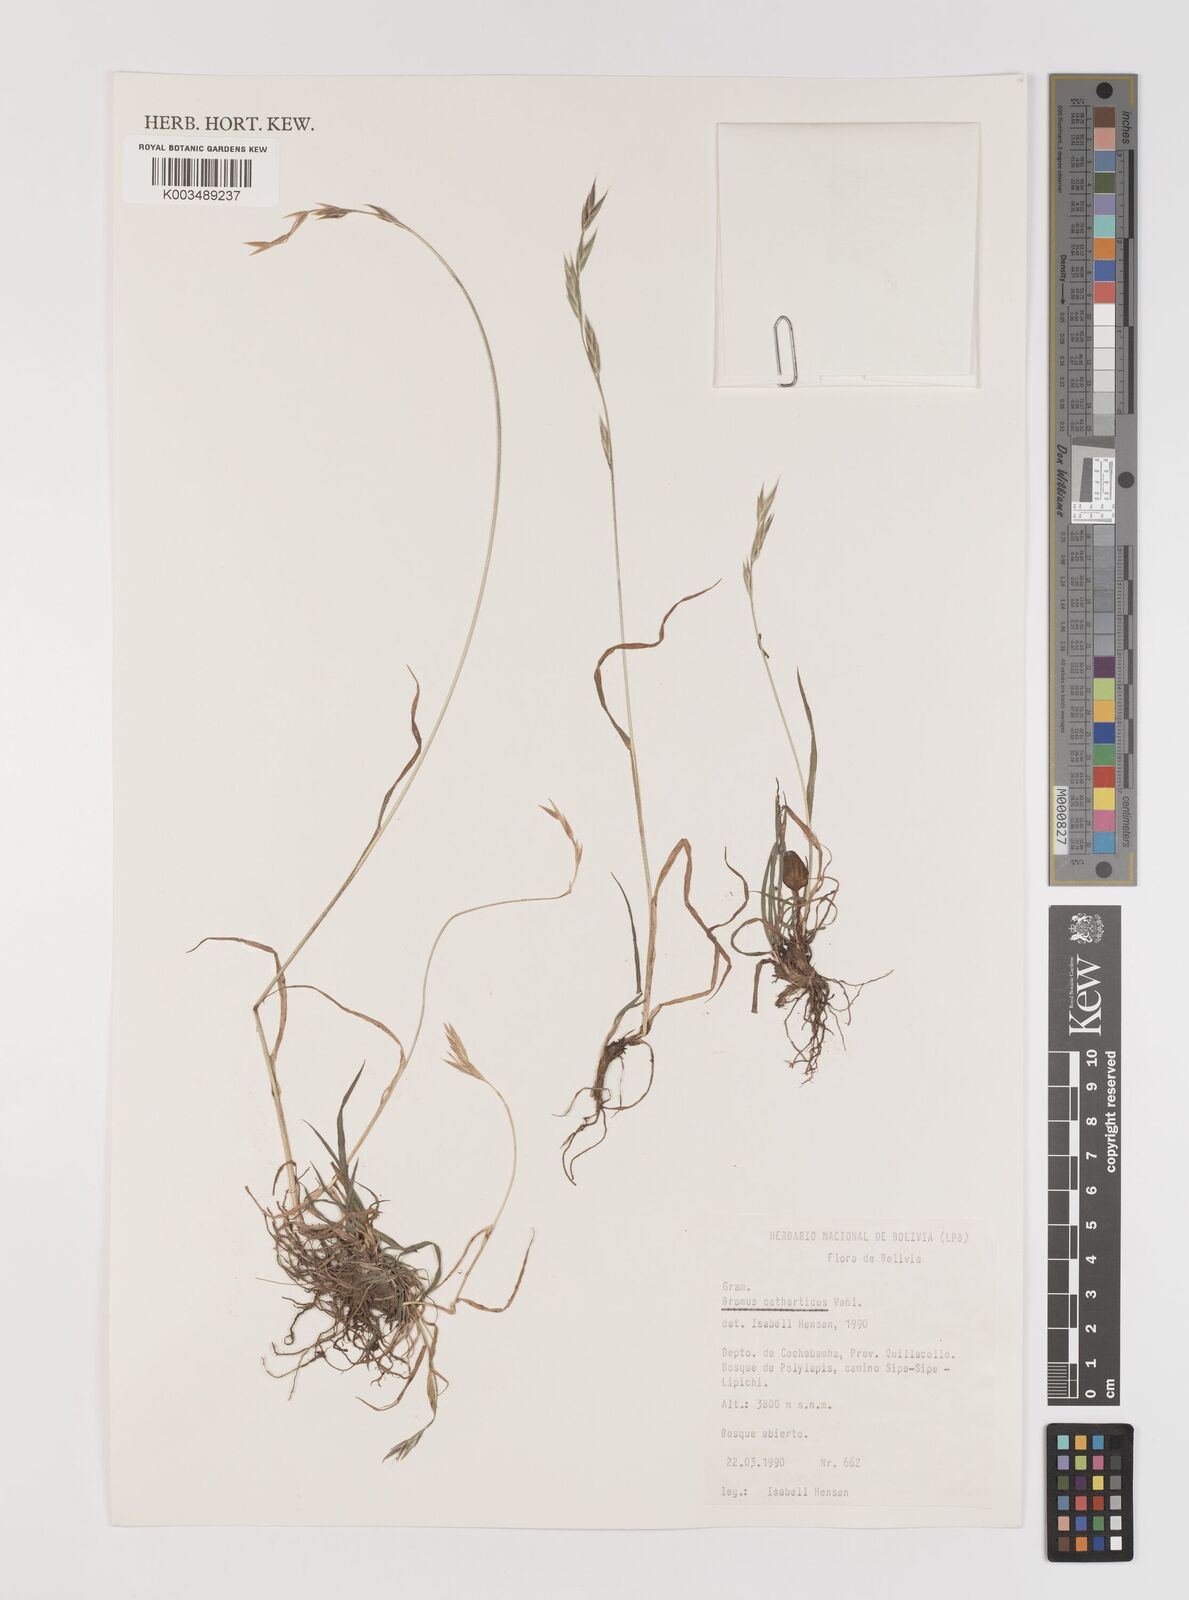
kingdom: Plantae
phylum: Tracheophyta
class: Liliopsida
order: Poales
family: Poaceae
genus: Bromus
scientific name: Bromus catharticus
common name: Rescuegrass
